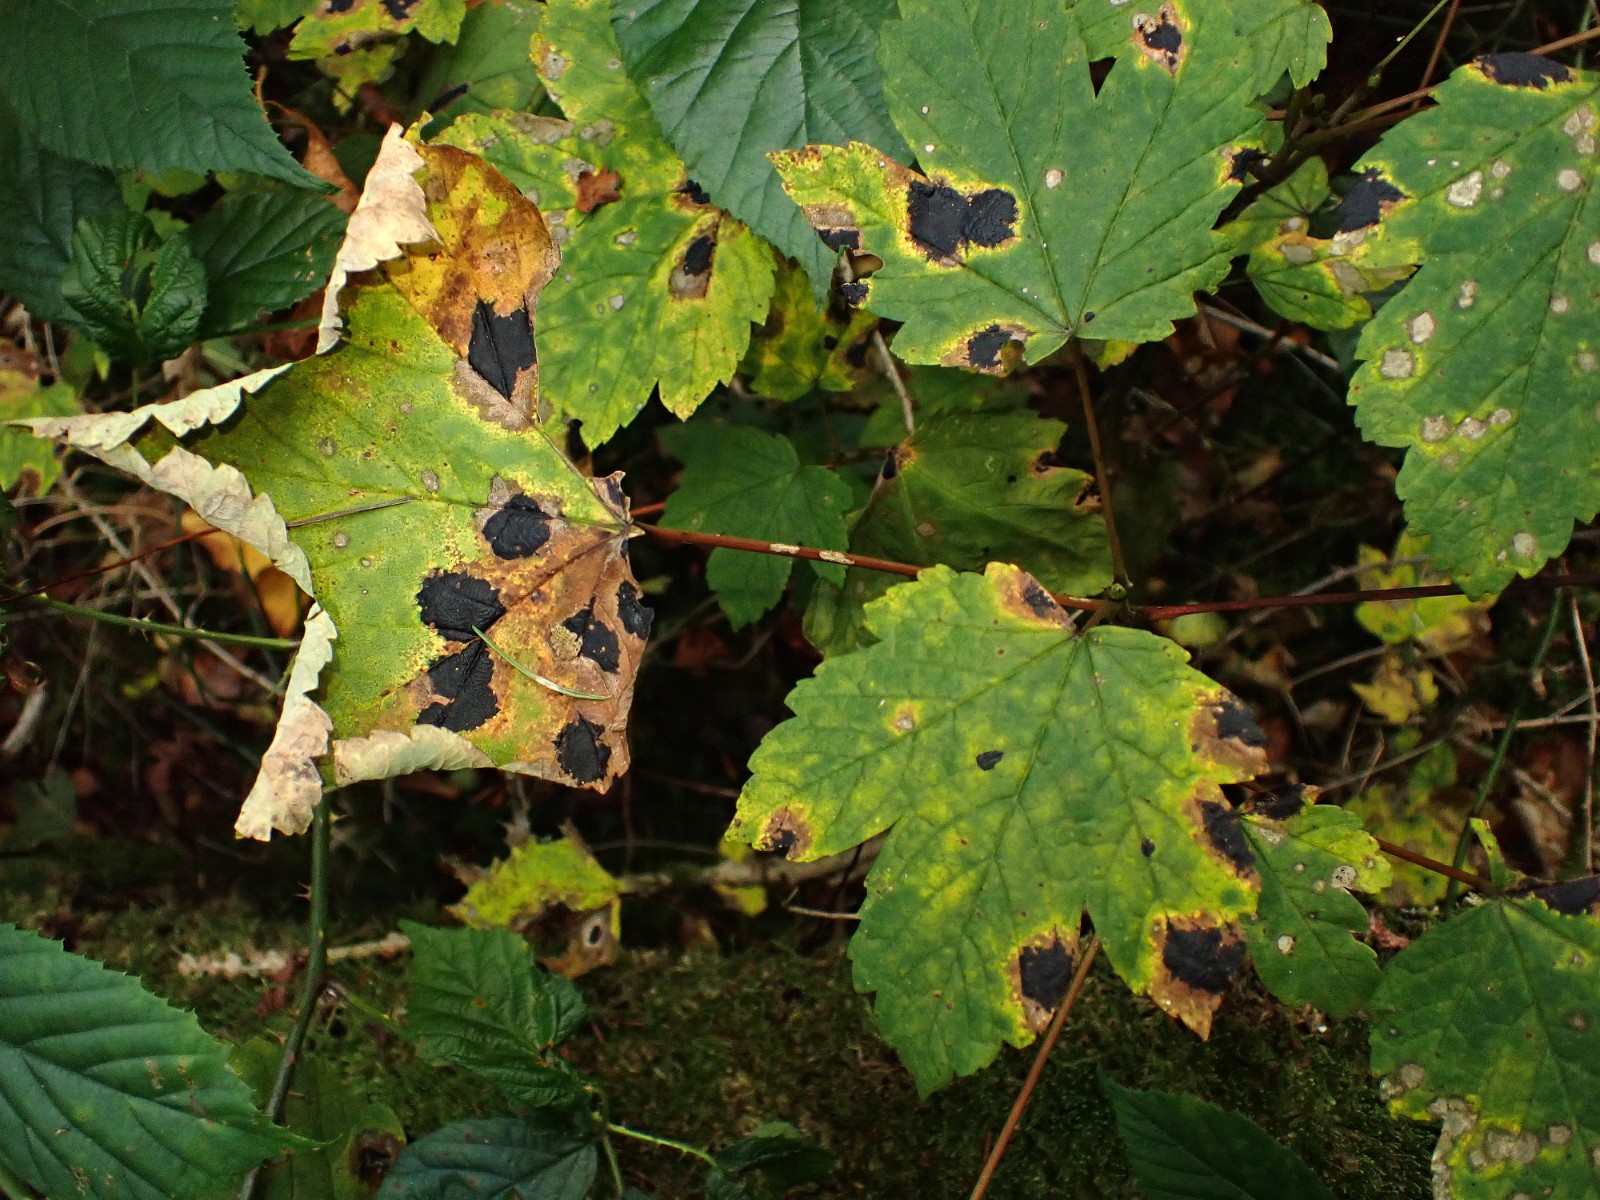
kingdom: Fungi
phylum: Ascomycota
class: Leotiomycetes
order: Rhytismatales
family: Rhytismataceae
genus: Rhytisma
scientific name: Rhytisma acerinum
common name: ahorn-rynkeplet
